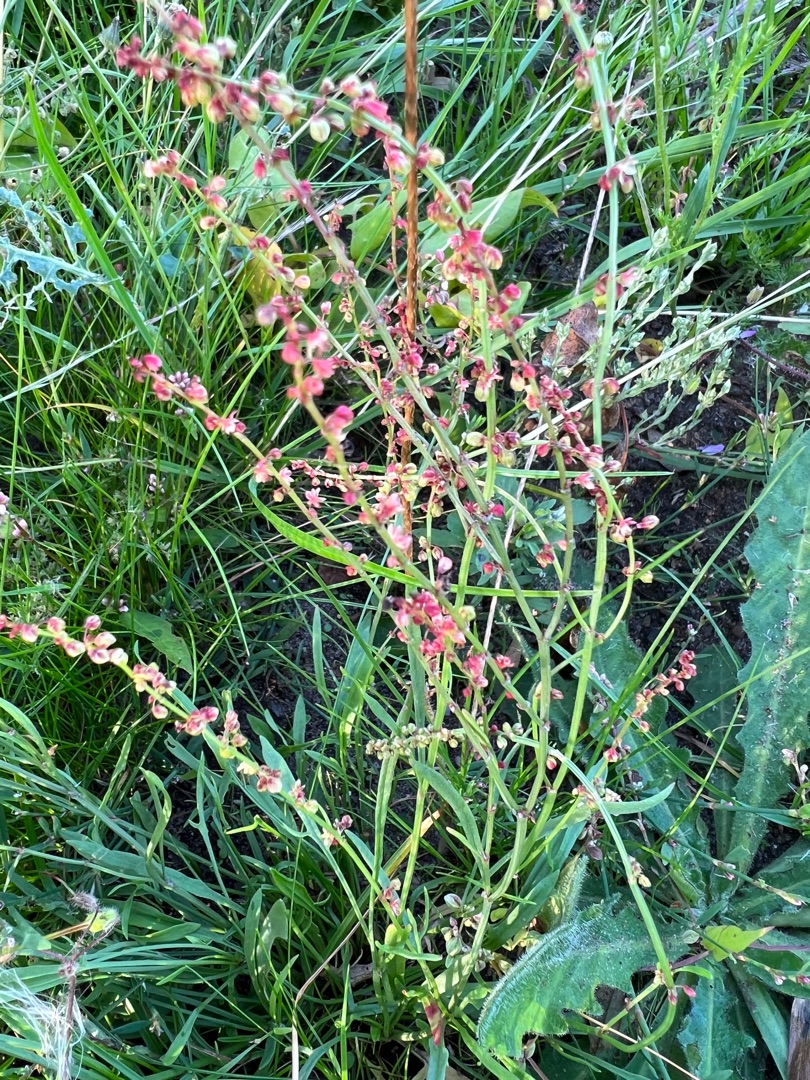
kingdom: Plantae
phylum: Tracheophyta
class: Magnoliopsida
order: Caryophyllales
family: Polygonaceae
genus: Rumex
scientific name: Rumex acetosella
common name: Finbladet rødknæ
